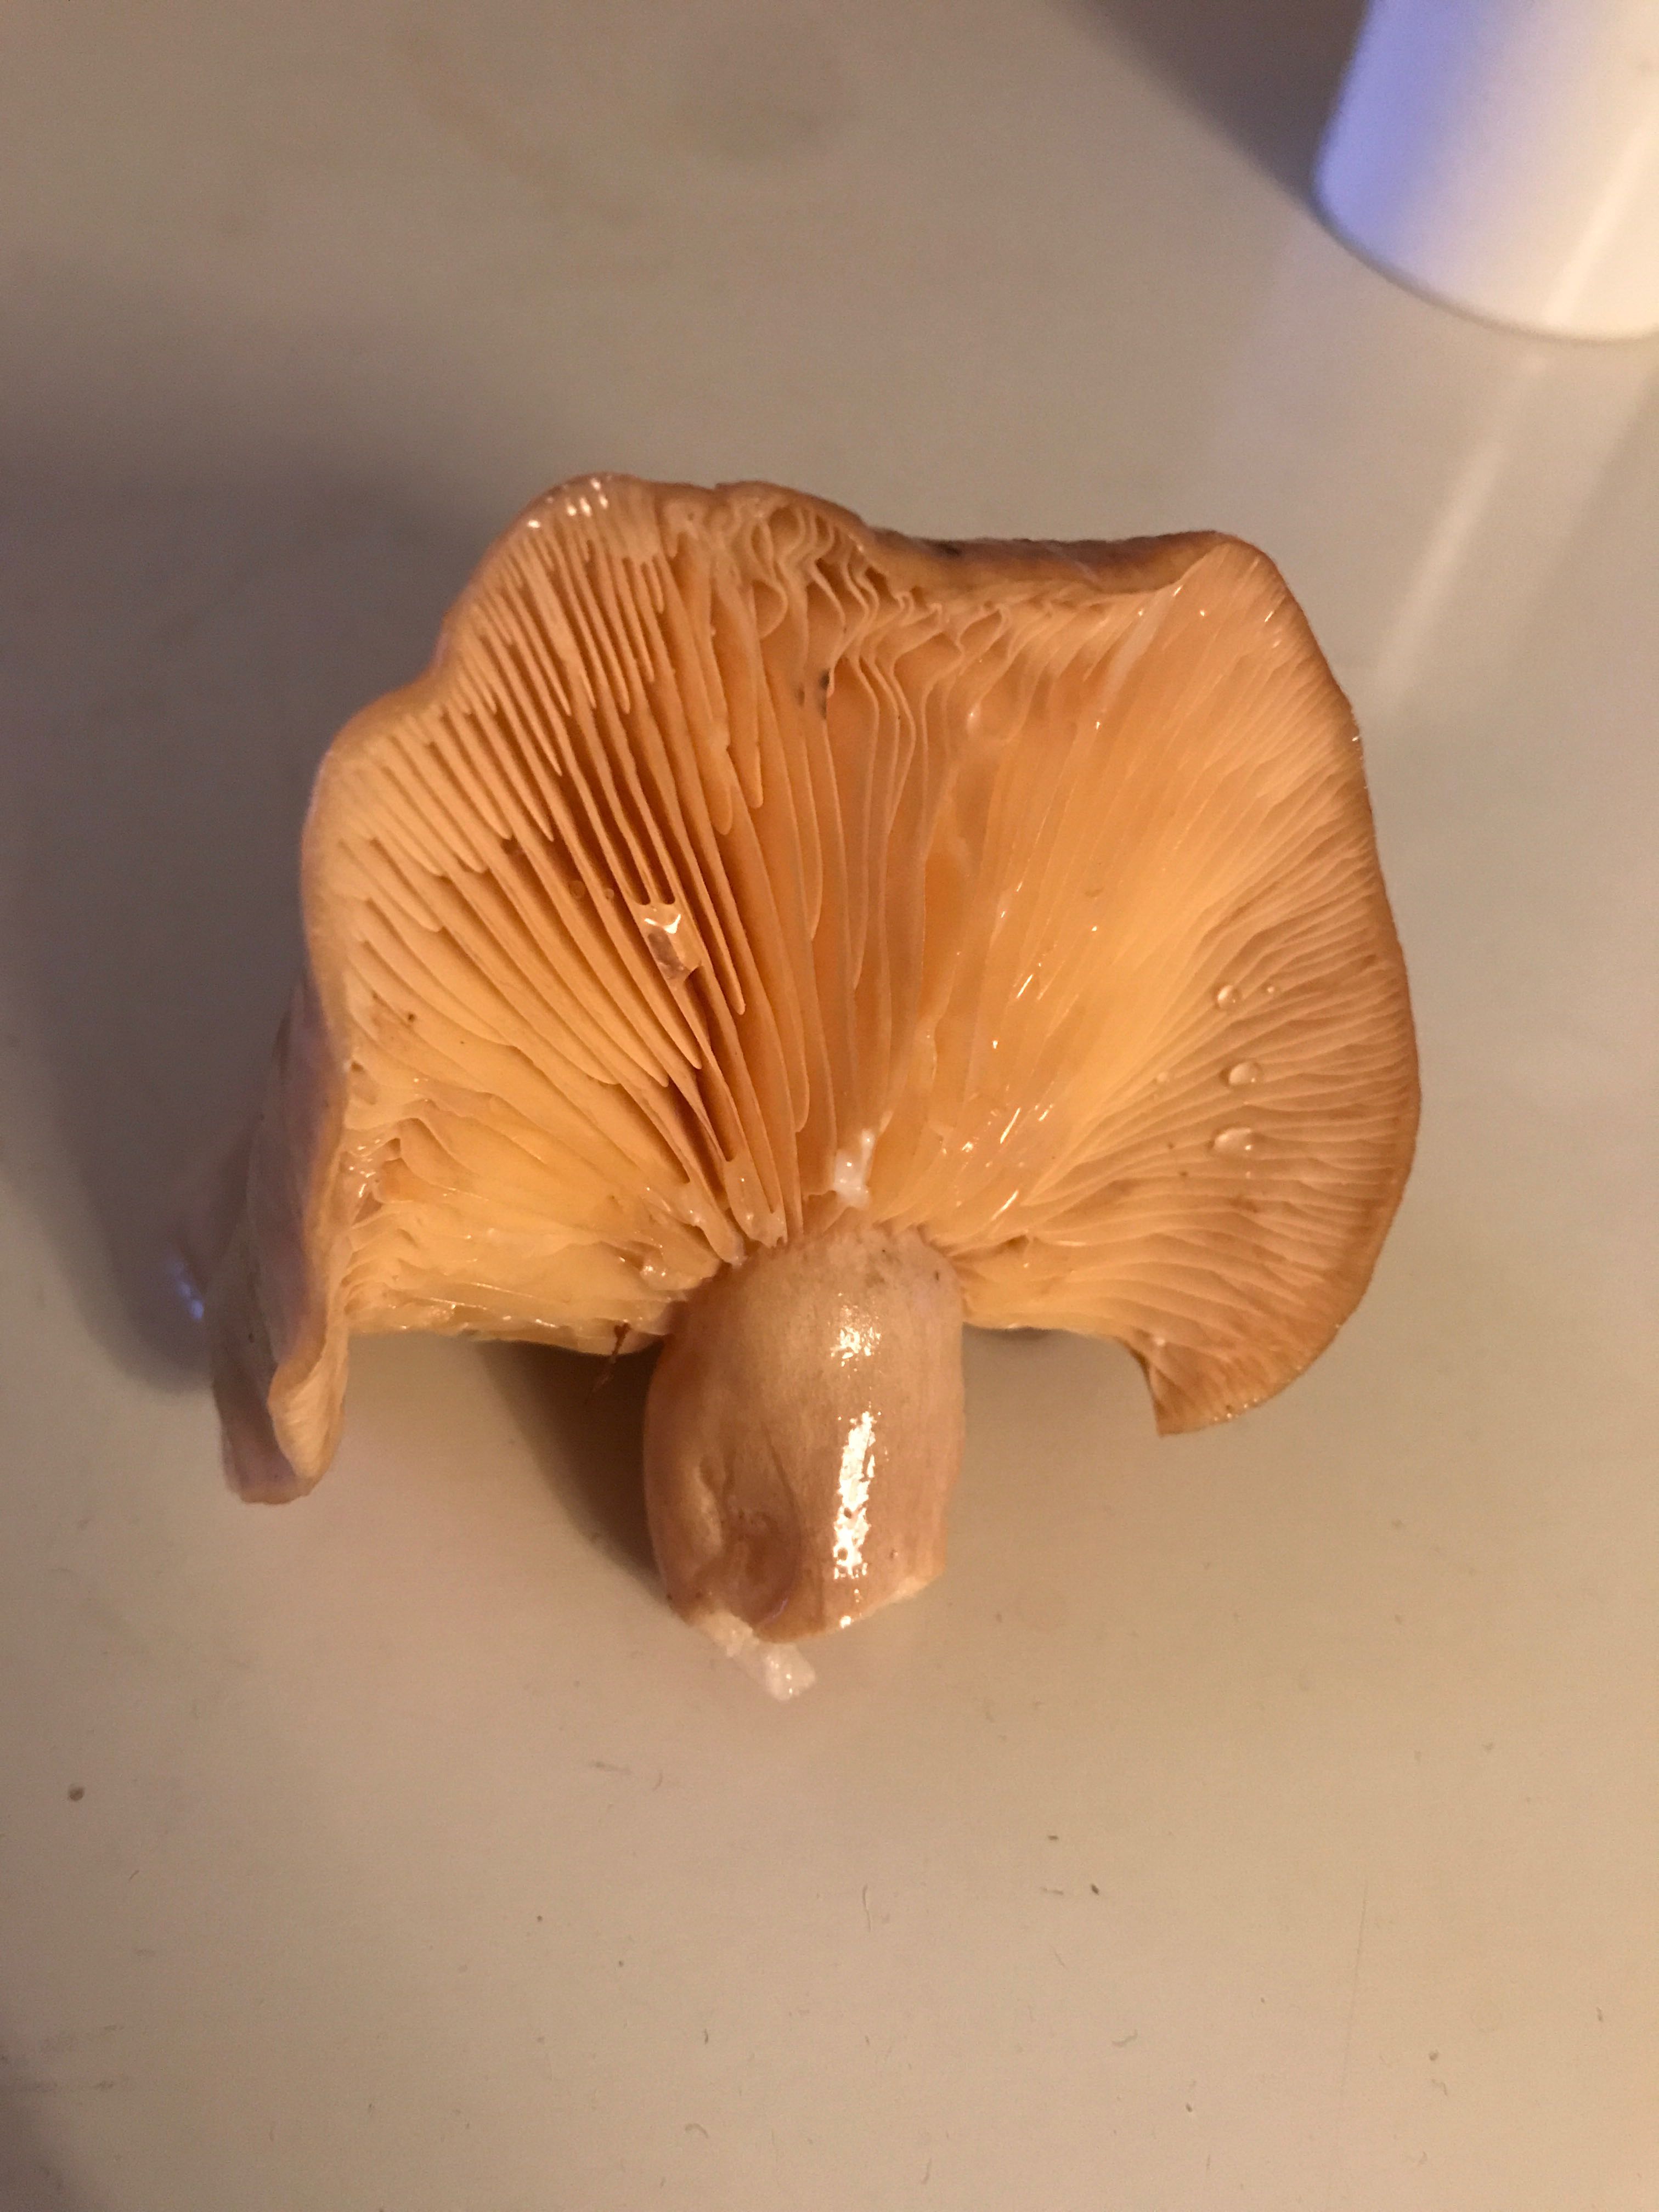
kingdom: Fungi
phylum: Basidiomycota
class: Agaricomycetes
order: Russulales
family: Russulaceae
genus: Lactarius
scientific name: Lactarius
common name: mælkehat
